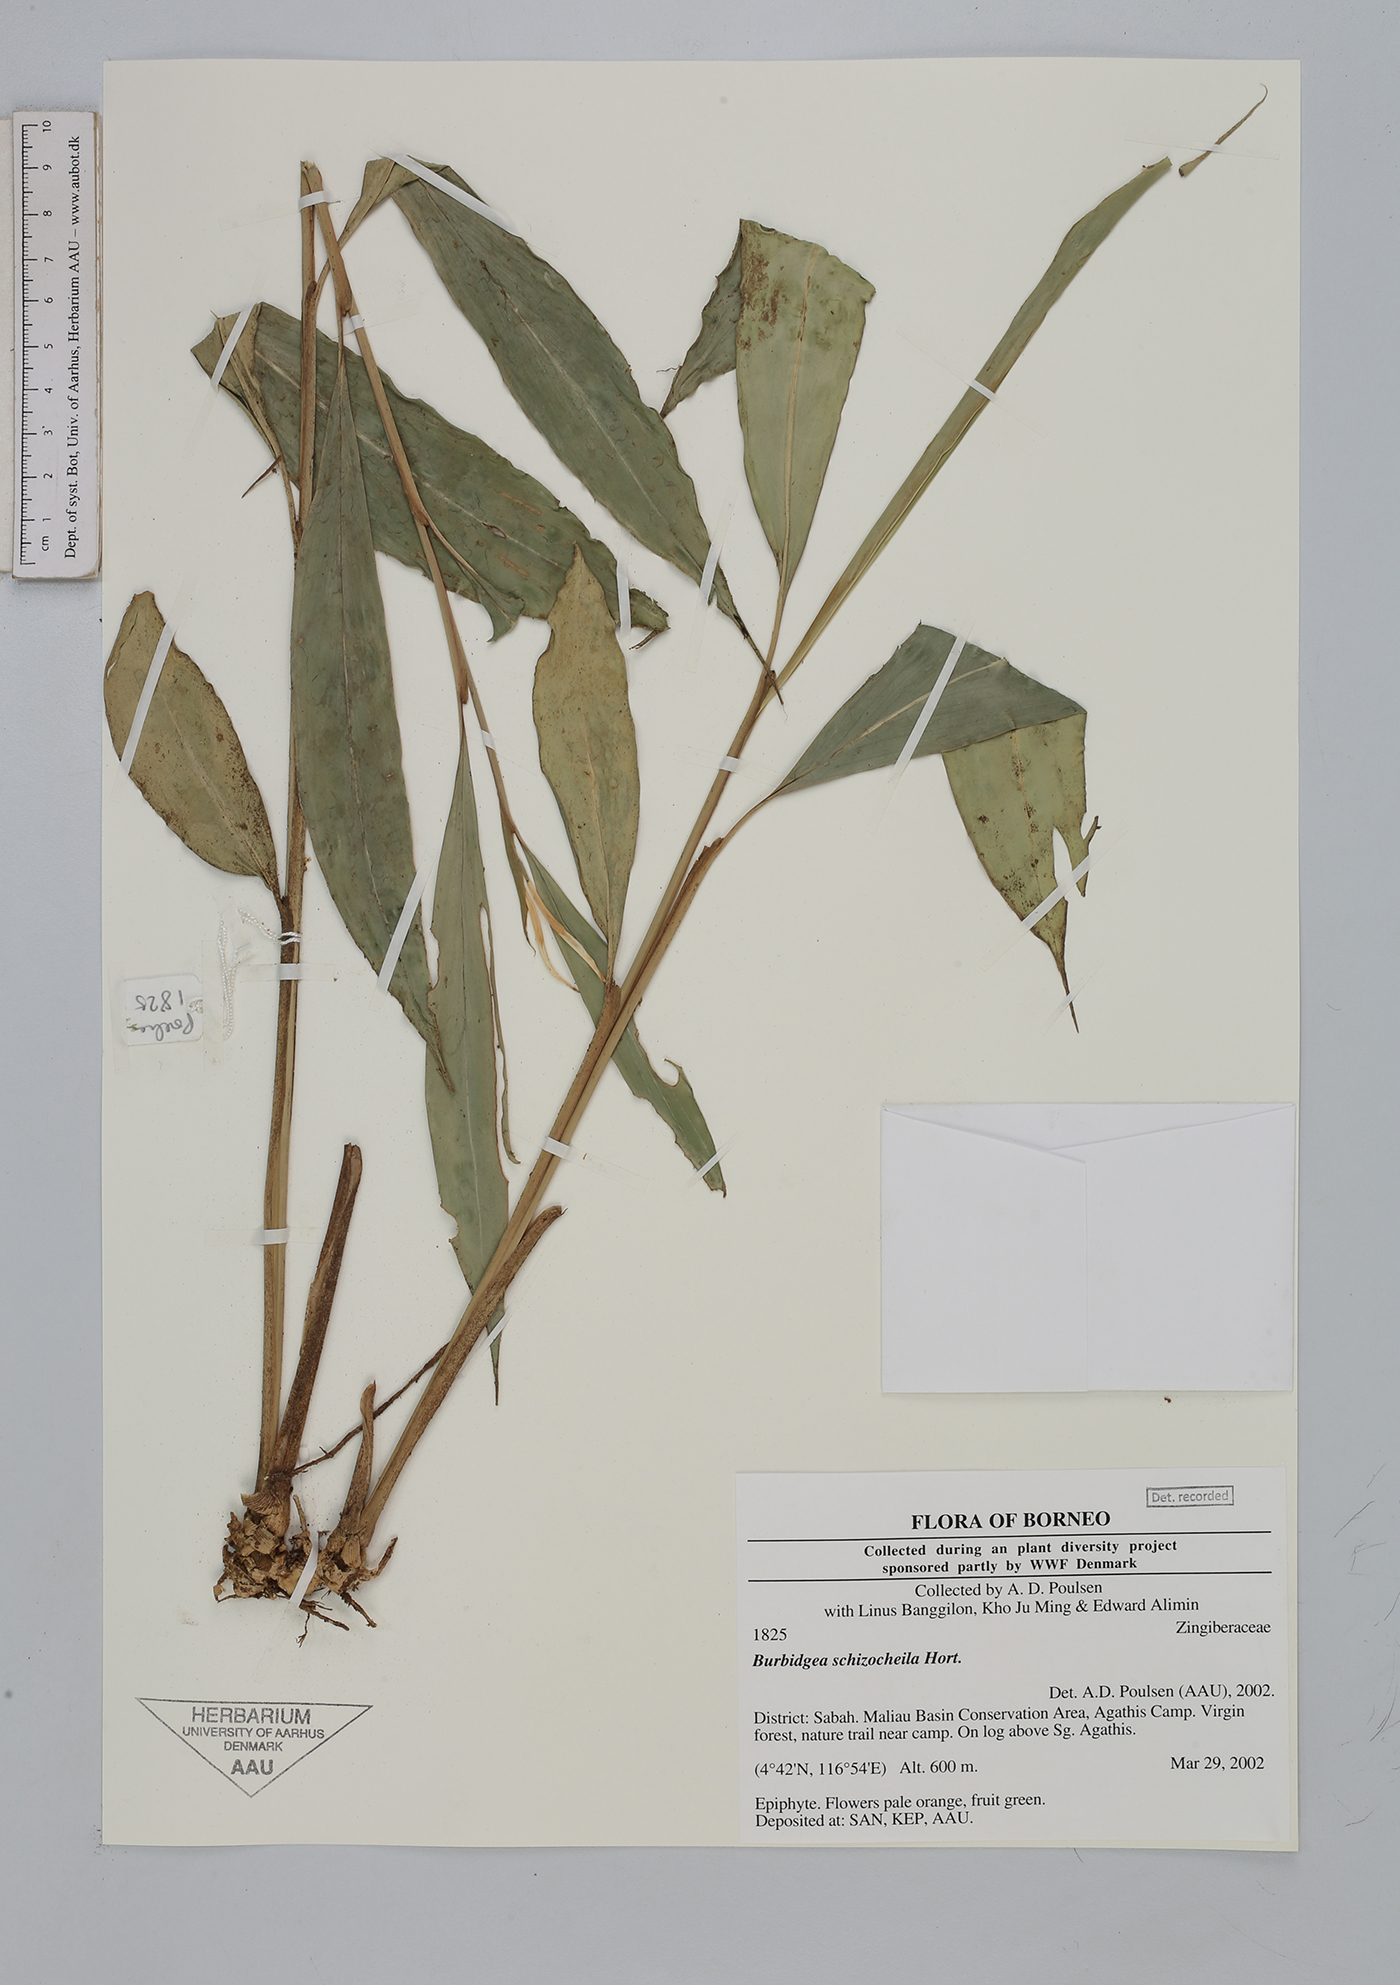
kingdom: Plantae
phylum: Tracheophyta
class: Liliopsida
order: Zingiberales
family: Zingiberaceae
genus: Burbidgea
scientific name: Burbidgea schizocheila
